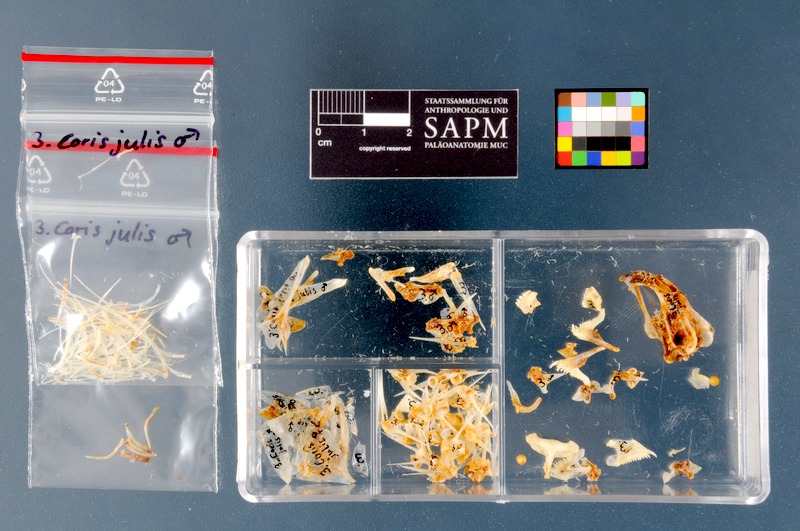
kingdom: Animalia
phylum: Chordata
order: Perciformes
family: Labridae
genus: Coris
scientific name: Coris julis
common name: Rainbow wrasse
